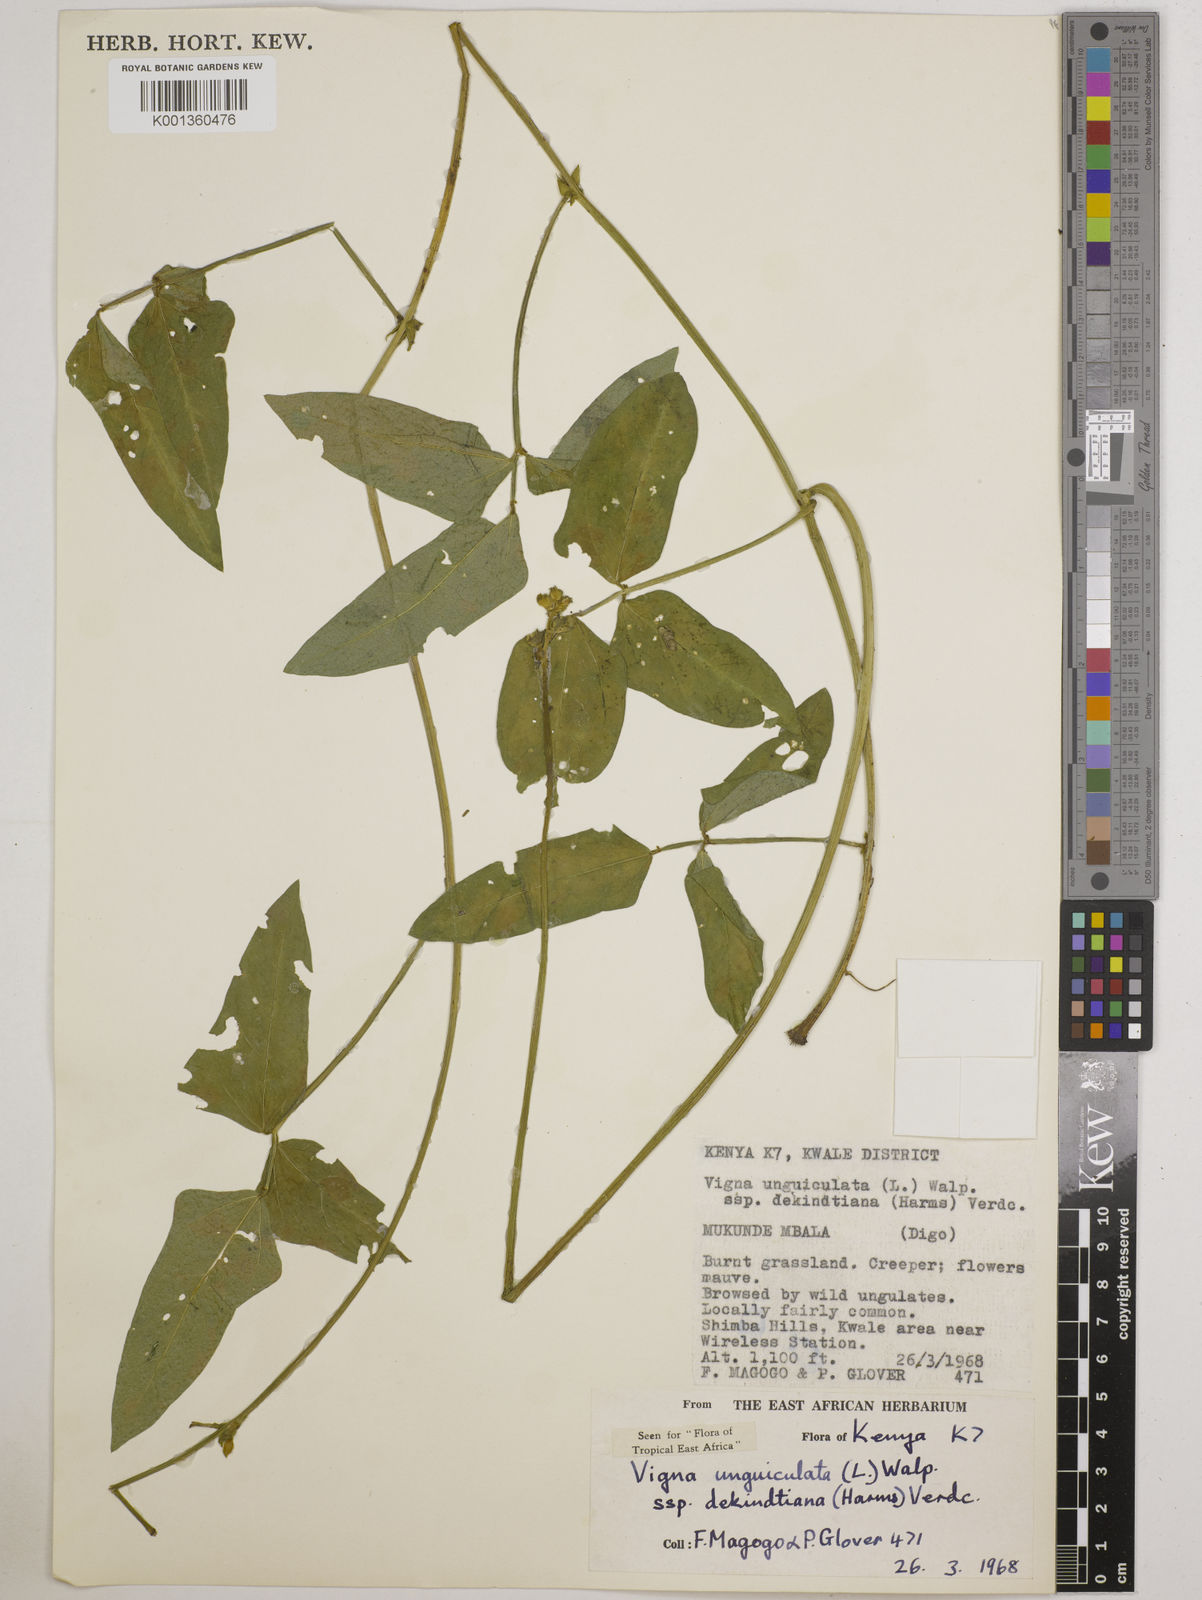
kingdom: Plantae
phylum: Tracheophyta
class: Magnoliopsida
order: Fabales
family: Fabaceae
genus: Vigna
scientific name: Vigna
